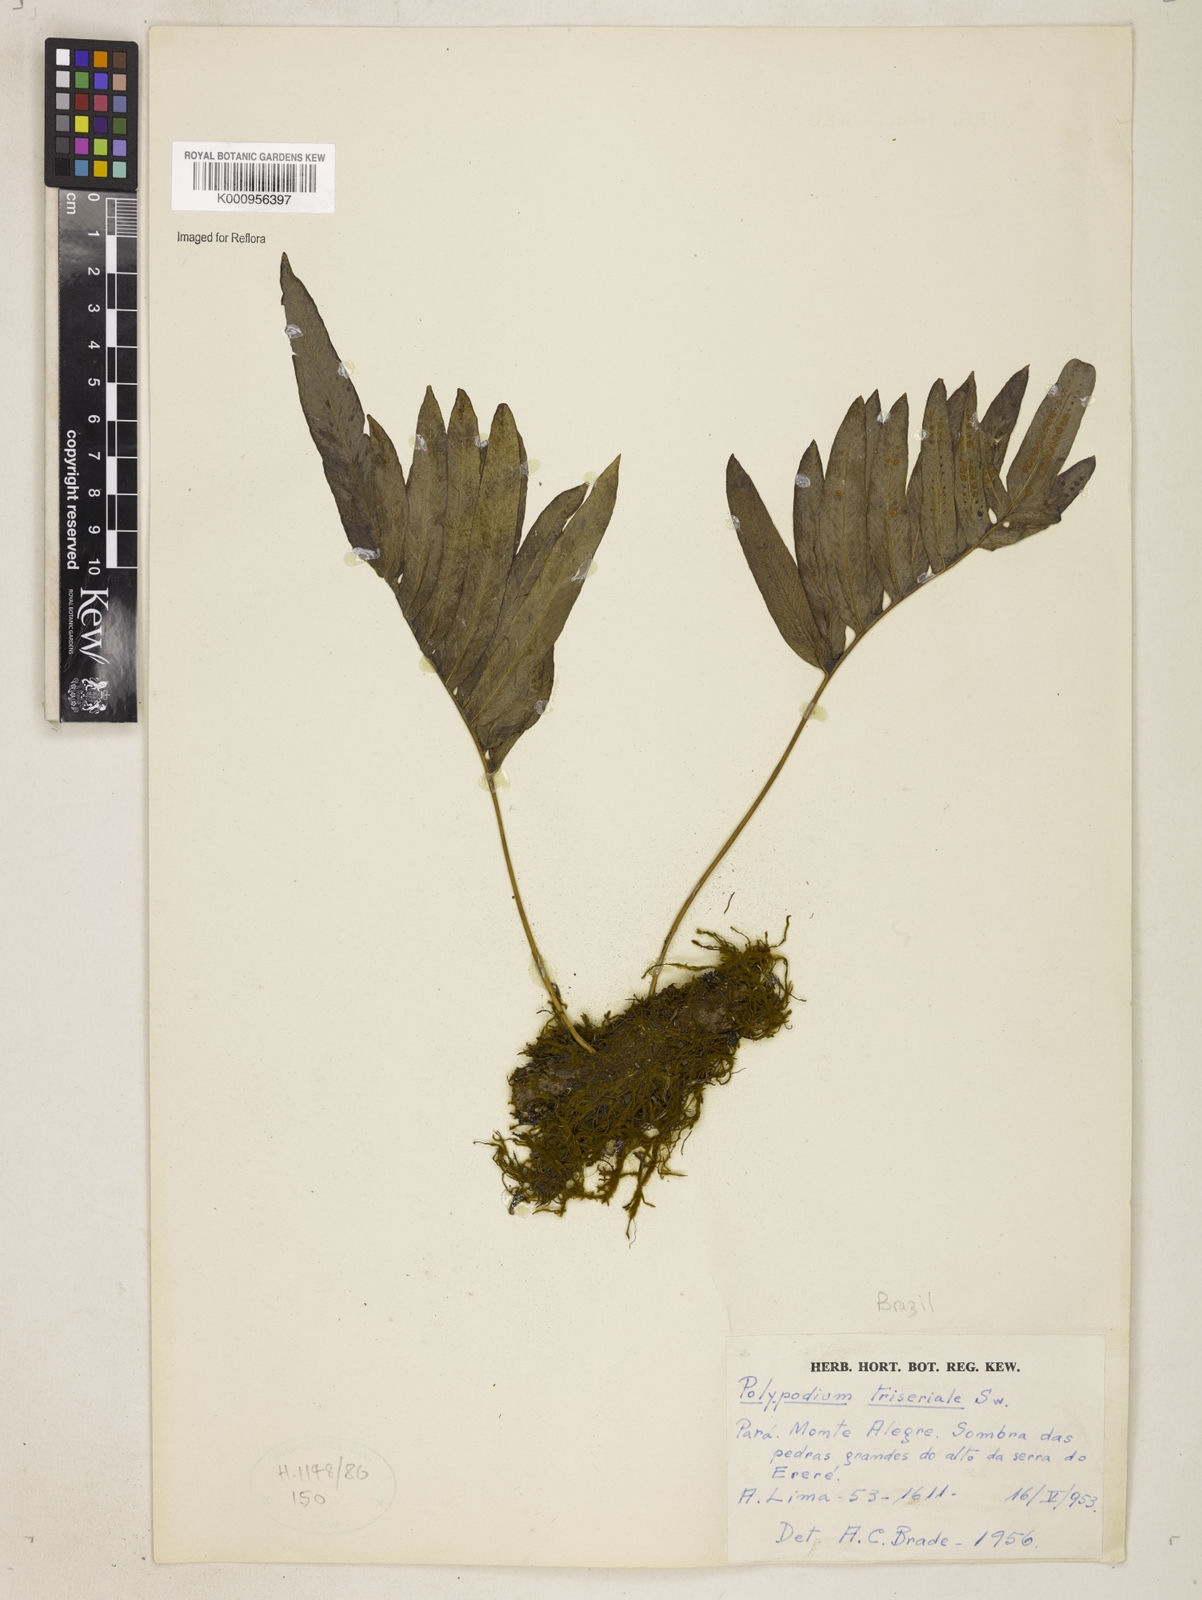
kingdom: Plantae
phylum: Tracheophyta
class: Polypodiopsida
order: Polypodiales
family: Polypodiaceae
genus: Serpocaulon
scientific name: Serpocaulon triseriale
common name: Angle-vein fern
